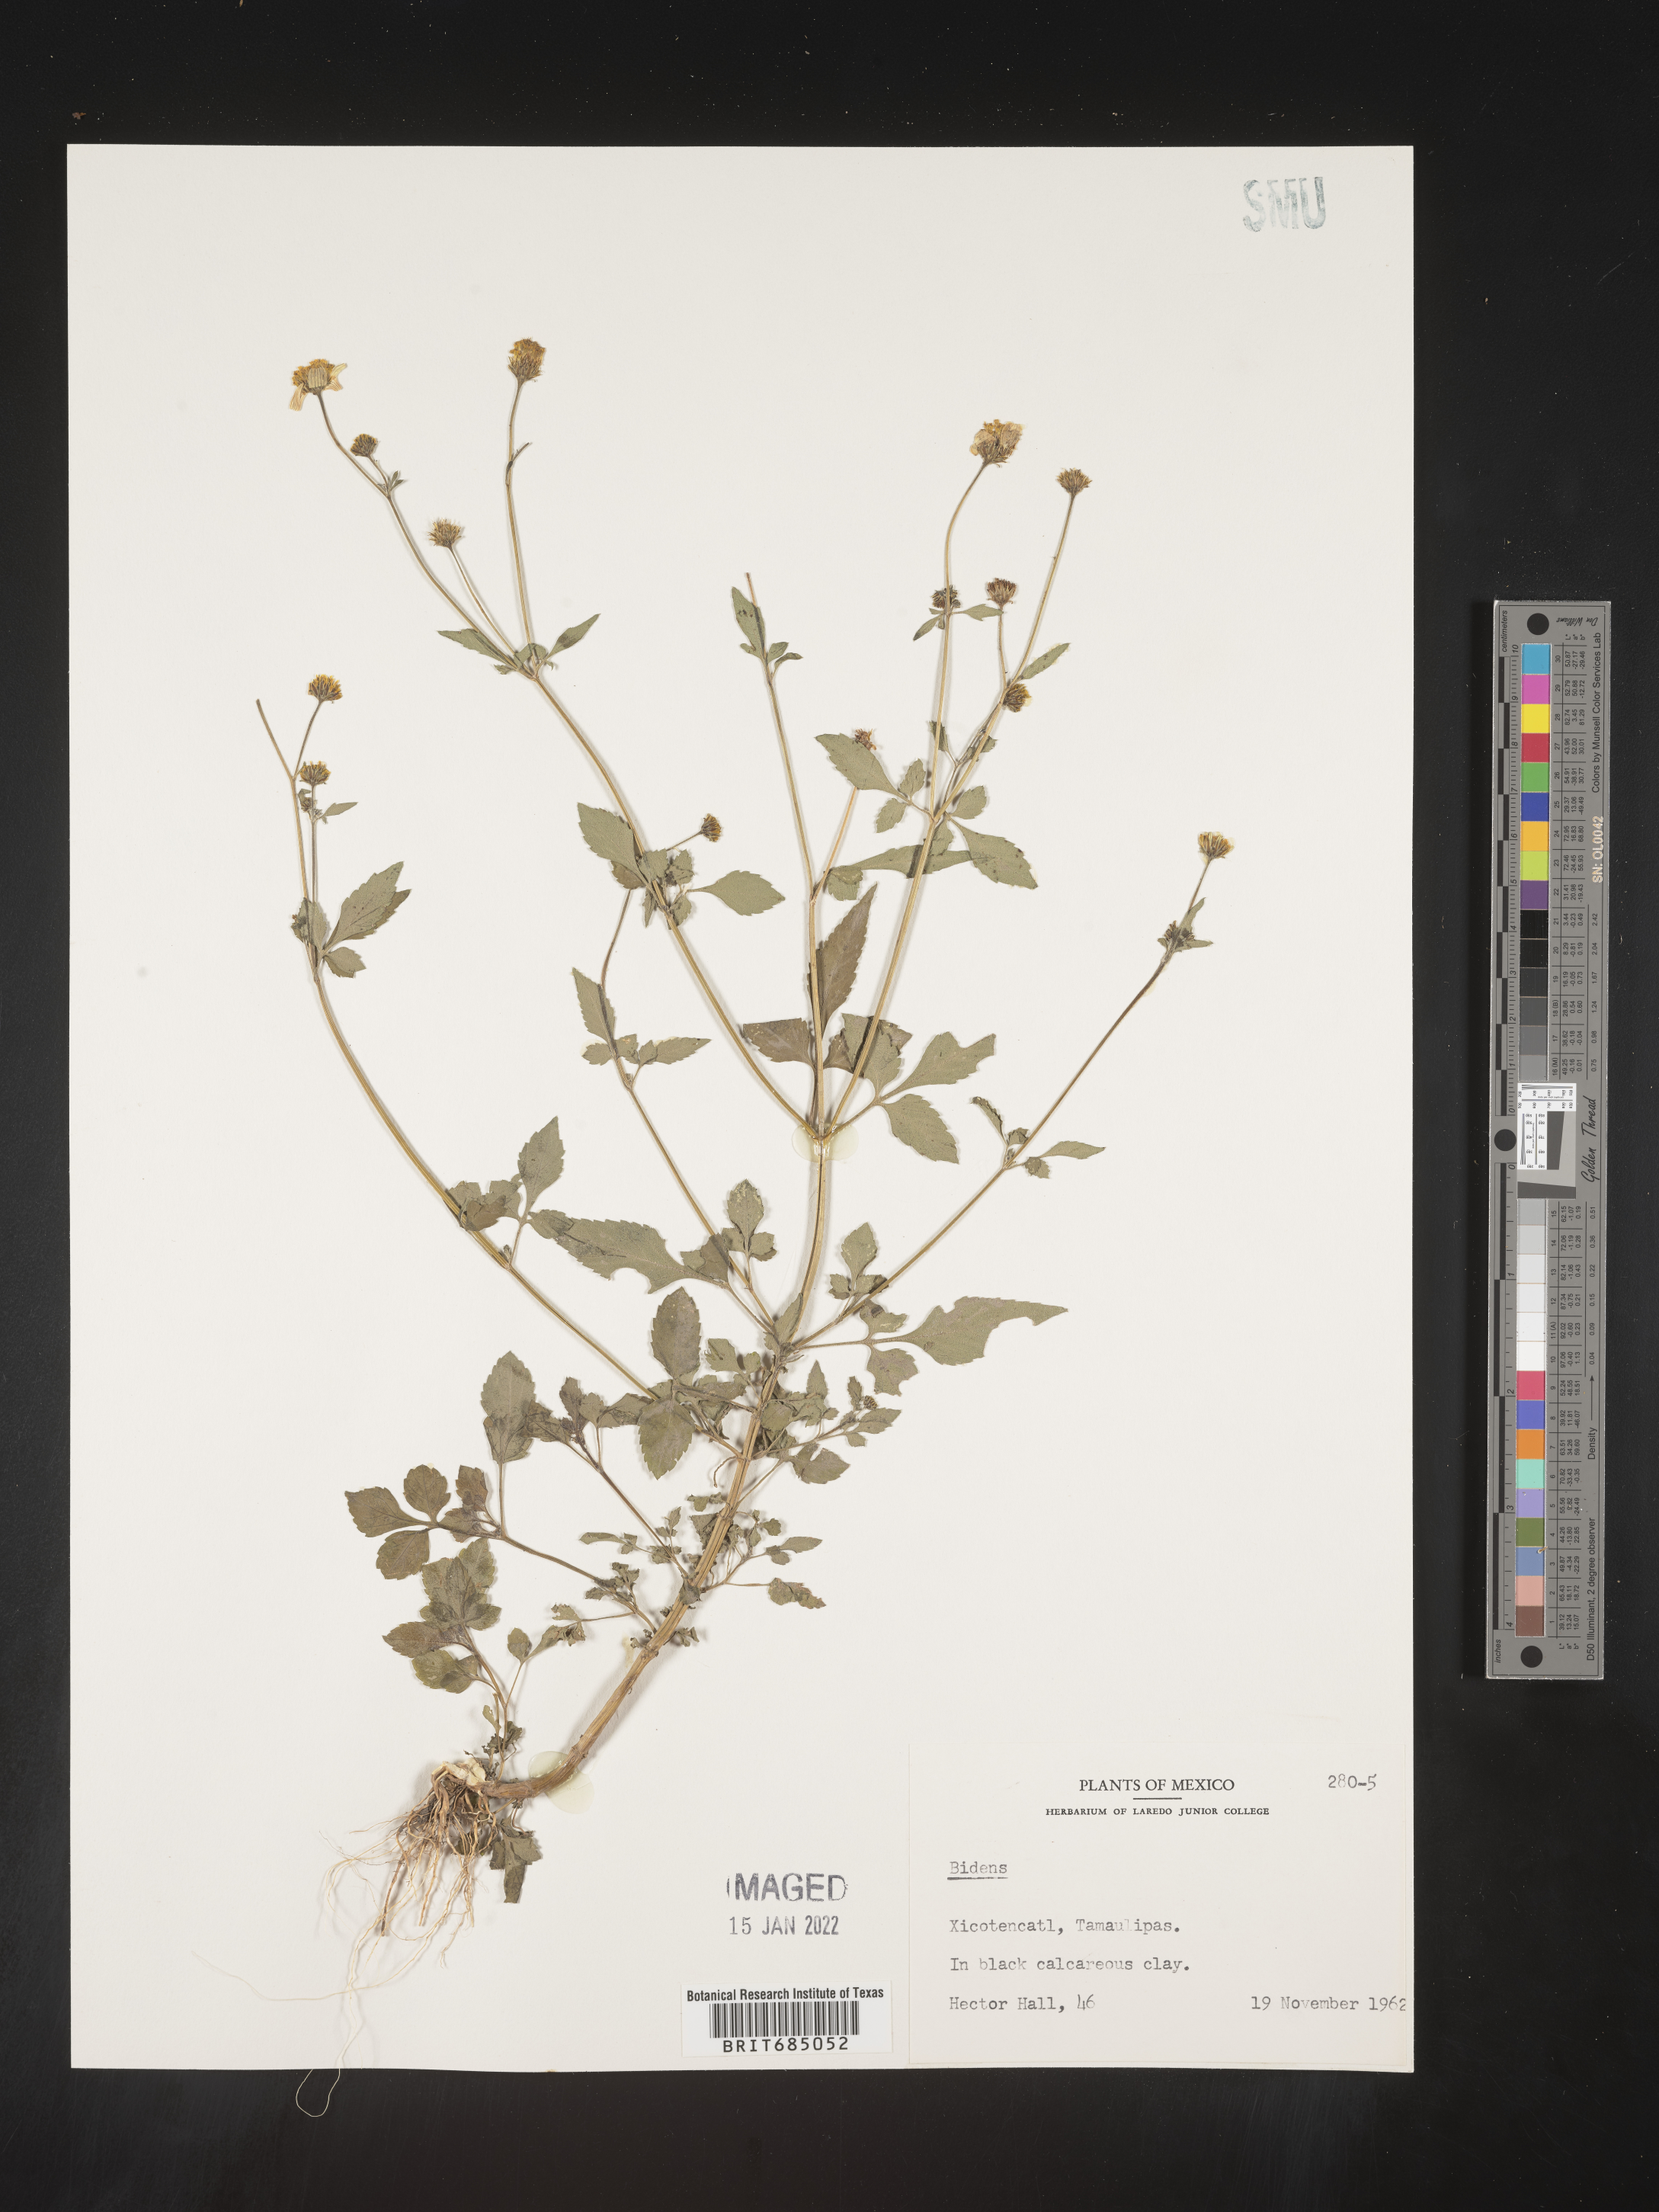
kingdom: Plantae
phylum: Tracheophyta
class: Magnoliopsida
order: Asterales
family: Asteraceae
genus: Bidens
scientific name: Bidens
